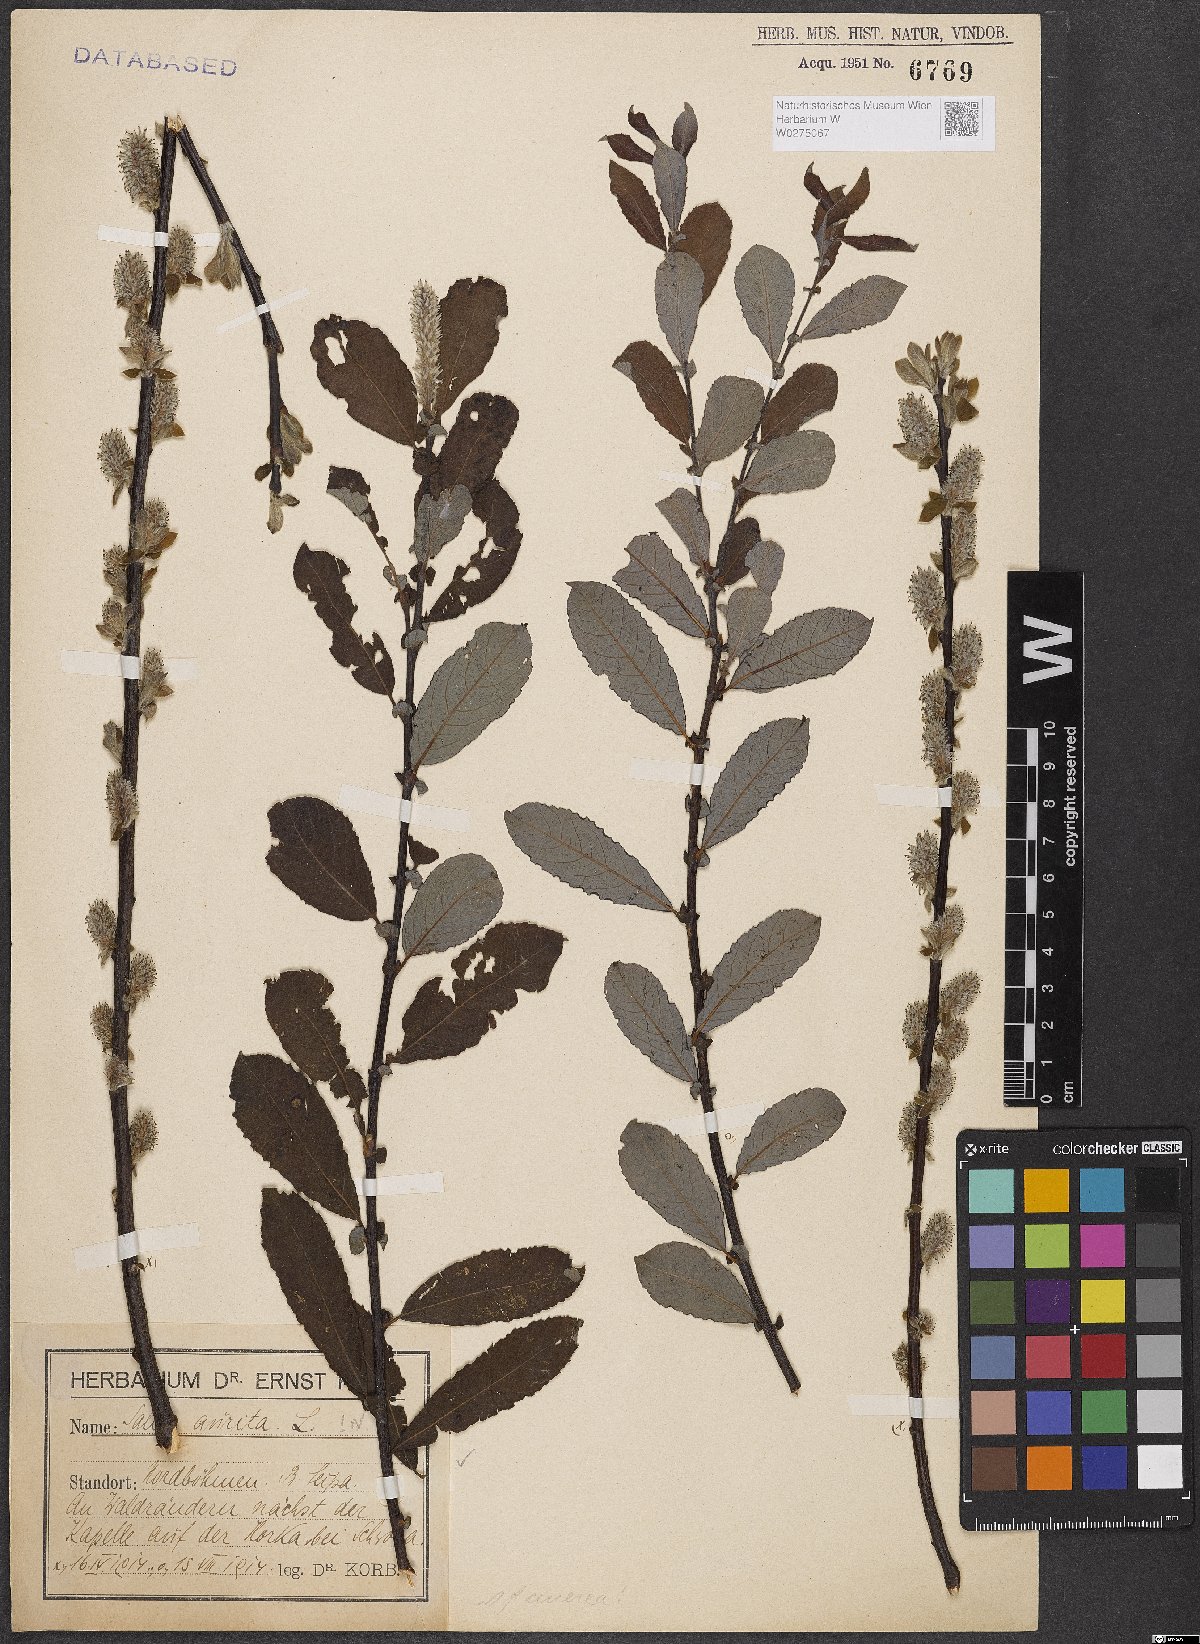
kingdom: Plantae
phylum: Tracheophyta
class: Magnoliopsida
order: Malpighiales
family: Salicaceae
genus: Salix
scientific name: Salix aurita
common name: Eared willow
